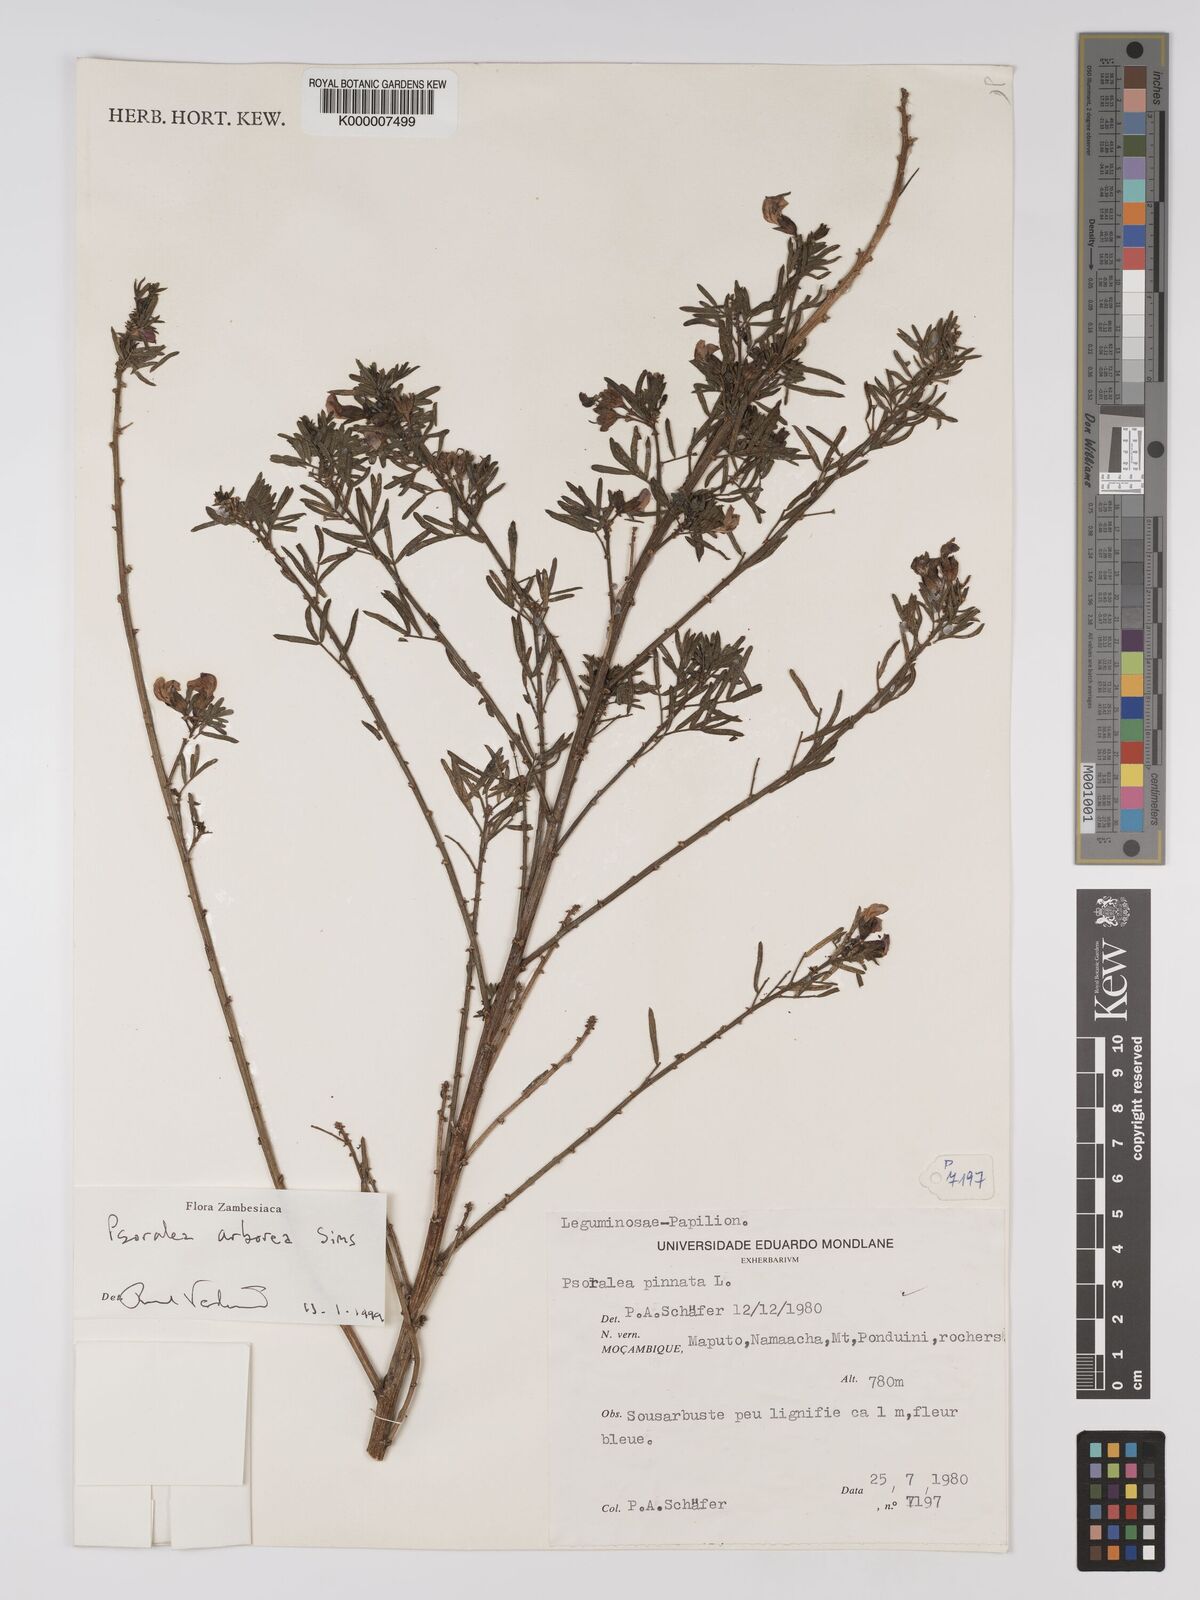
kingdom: Plantae
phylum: Tracheophyta
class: Magnoliopsida
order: Fabales
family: Fabaceae
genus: Psoralea
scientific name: Psoralea arborea
